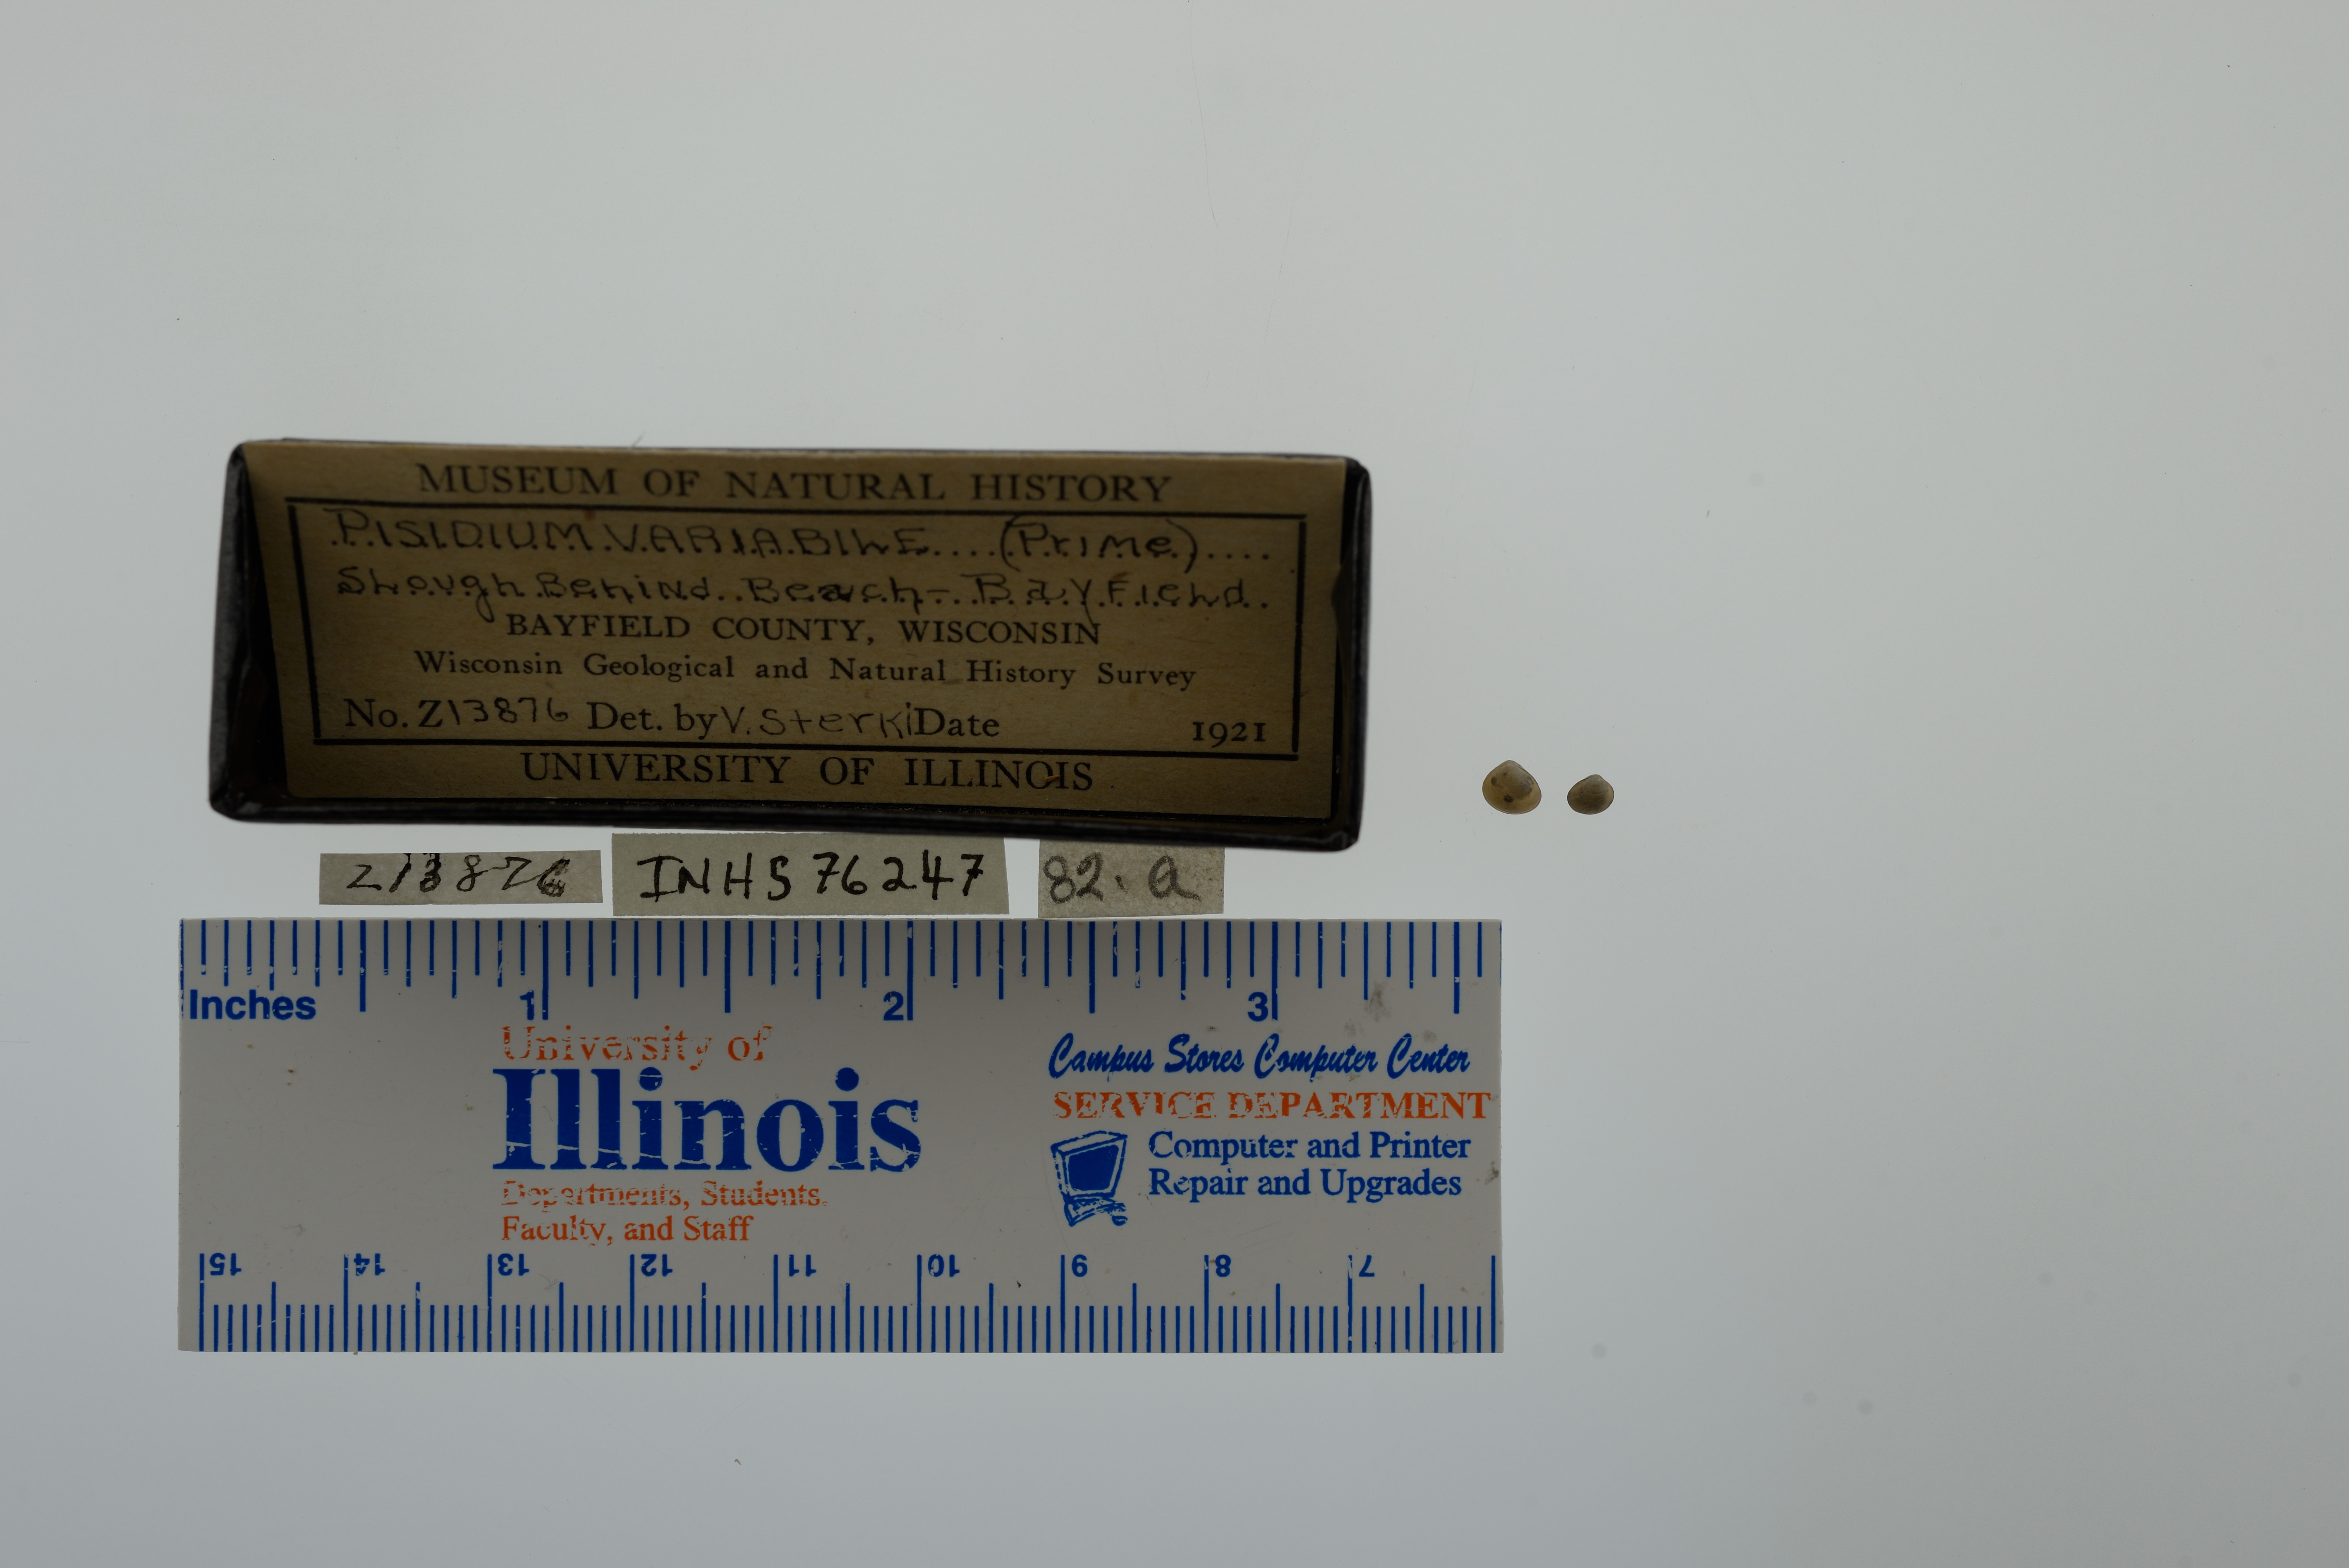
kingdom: Animalia
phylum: Mollusca
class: Bivalvia
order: Sphaeriida
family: Sphaeriidae
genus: Euglesa
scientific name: Euglesa variabilis
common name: Triangular peaclam
